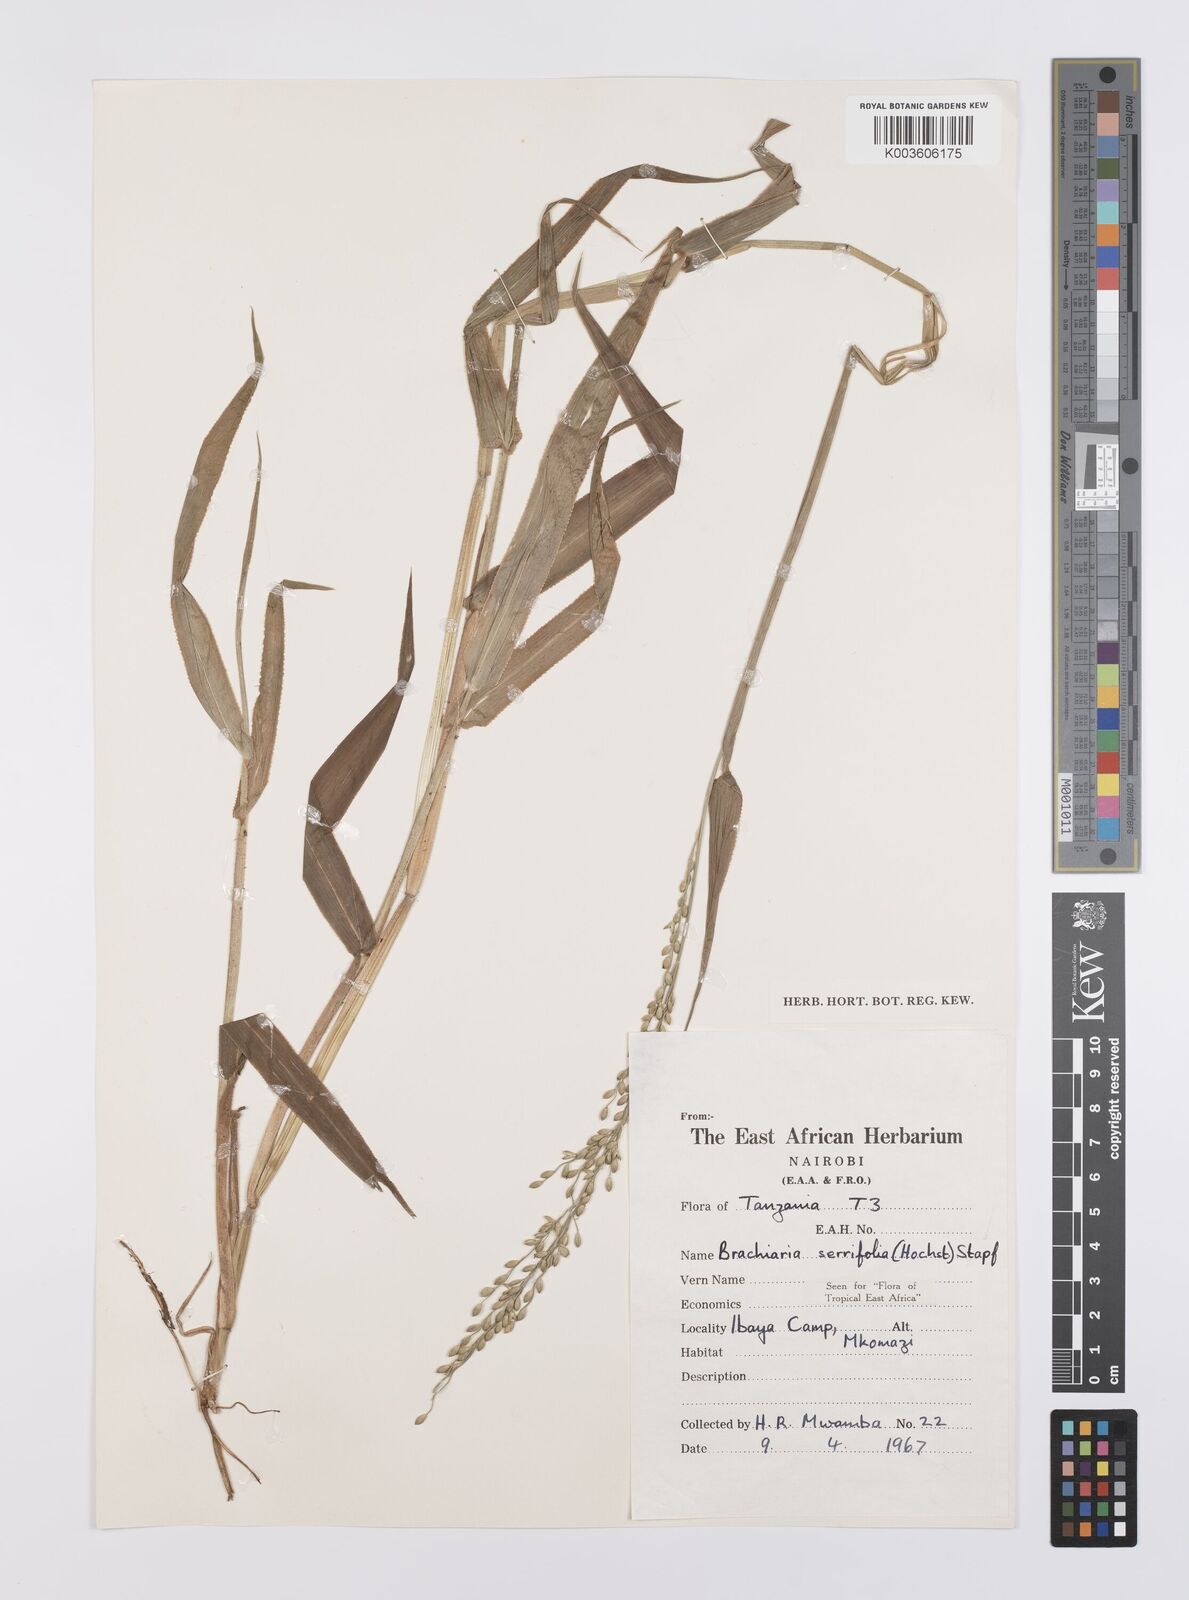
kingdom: Plantae
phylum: Tracheophyta
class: Liliopsida
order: Poales
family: Poaceae
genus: Urochloa
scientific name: Urochloa serrifolia
